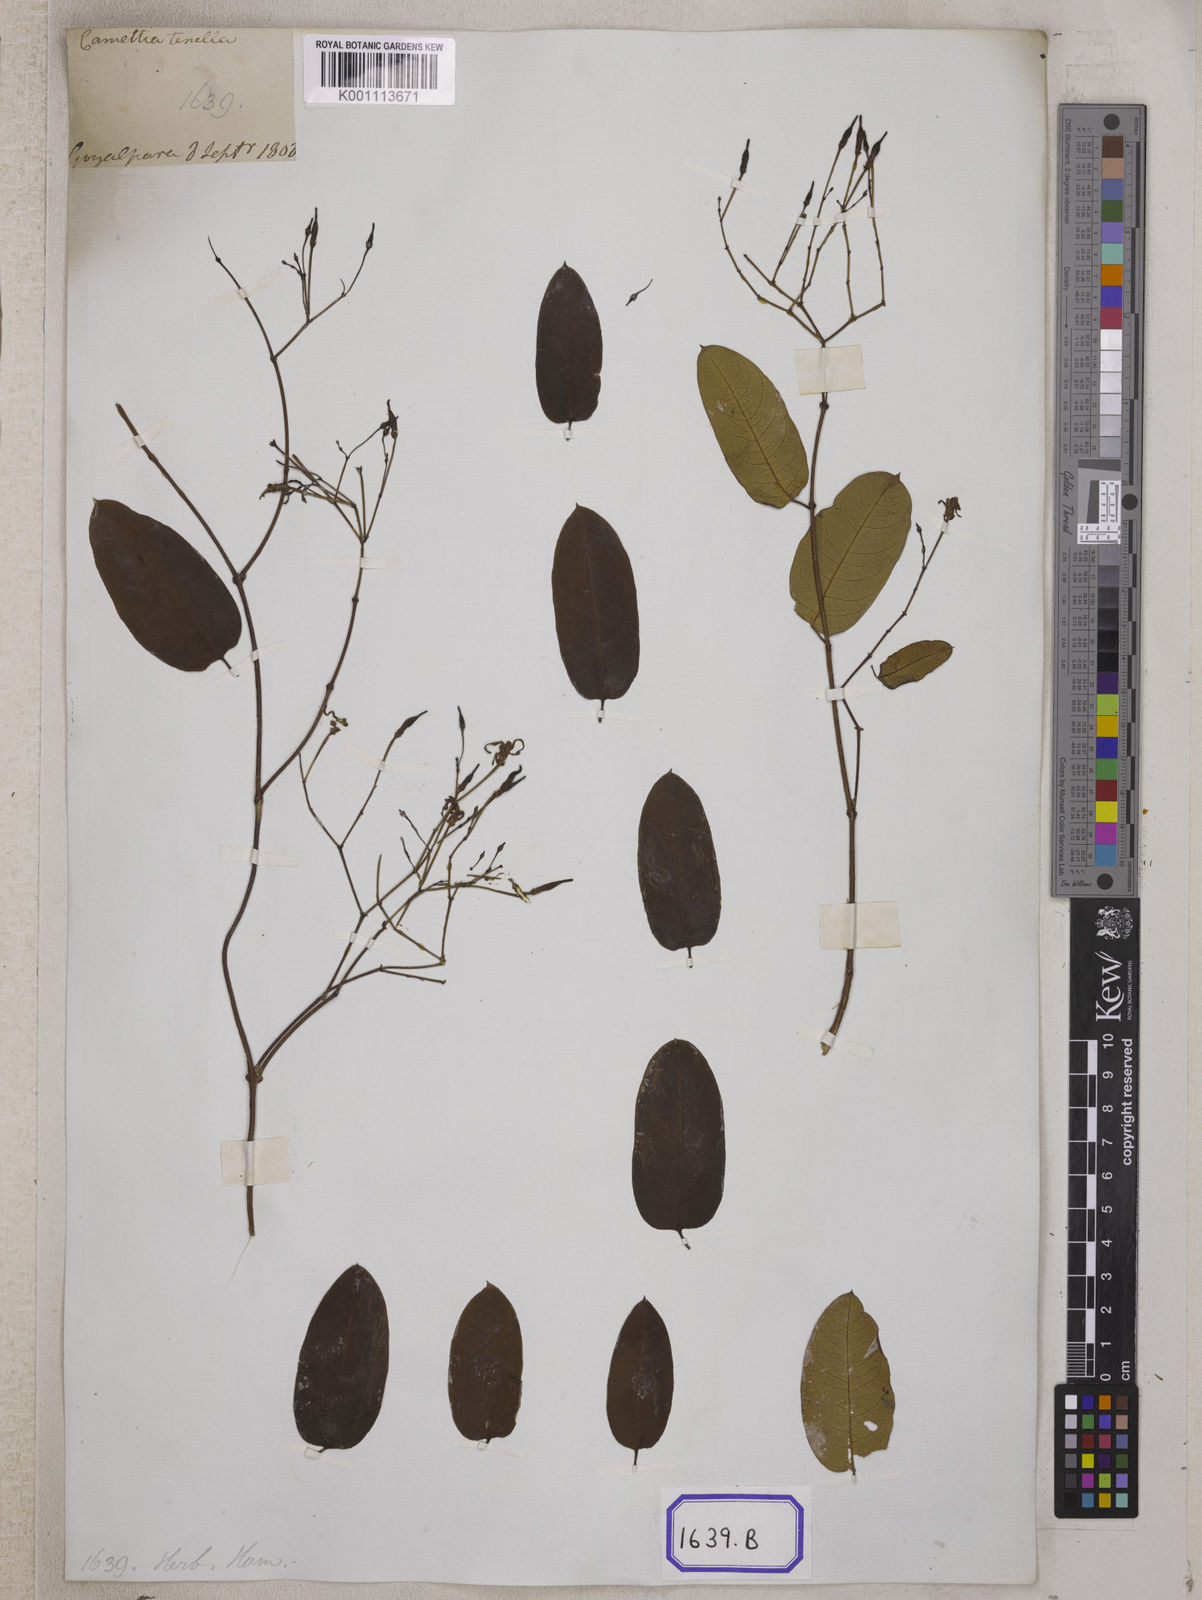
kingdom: Plantae
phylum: Tracheophyta
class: Magnoliopsida
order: Gentianales
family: Apocynaceae
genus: Cryptolepis
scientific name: Cryptolepis
